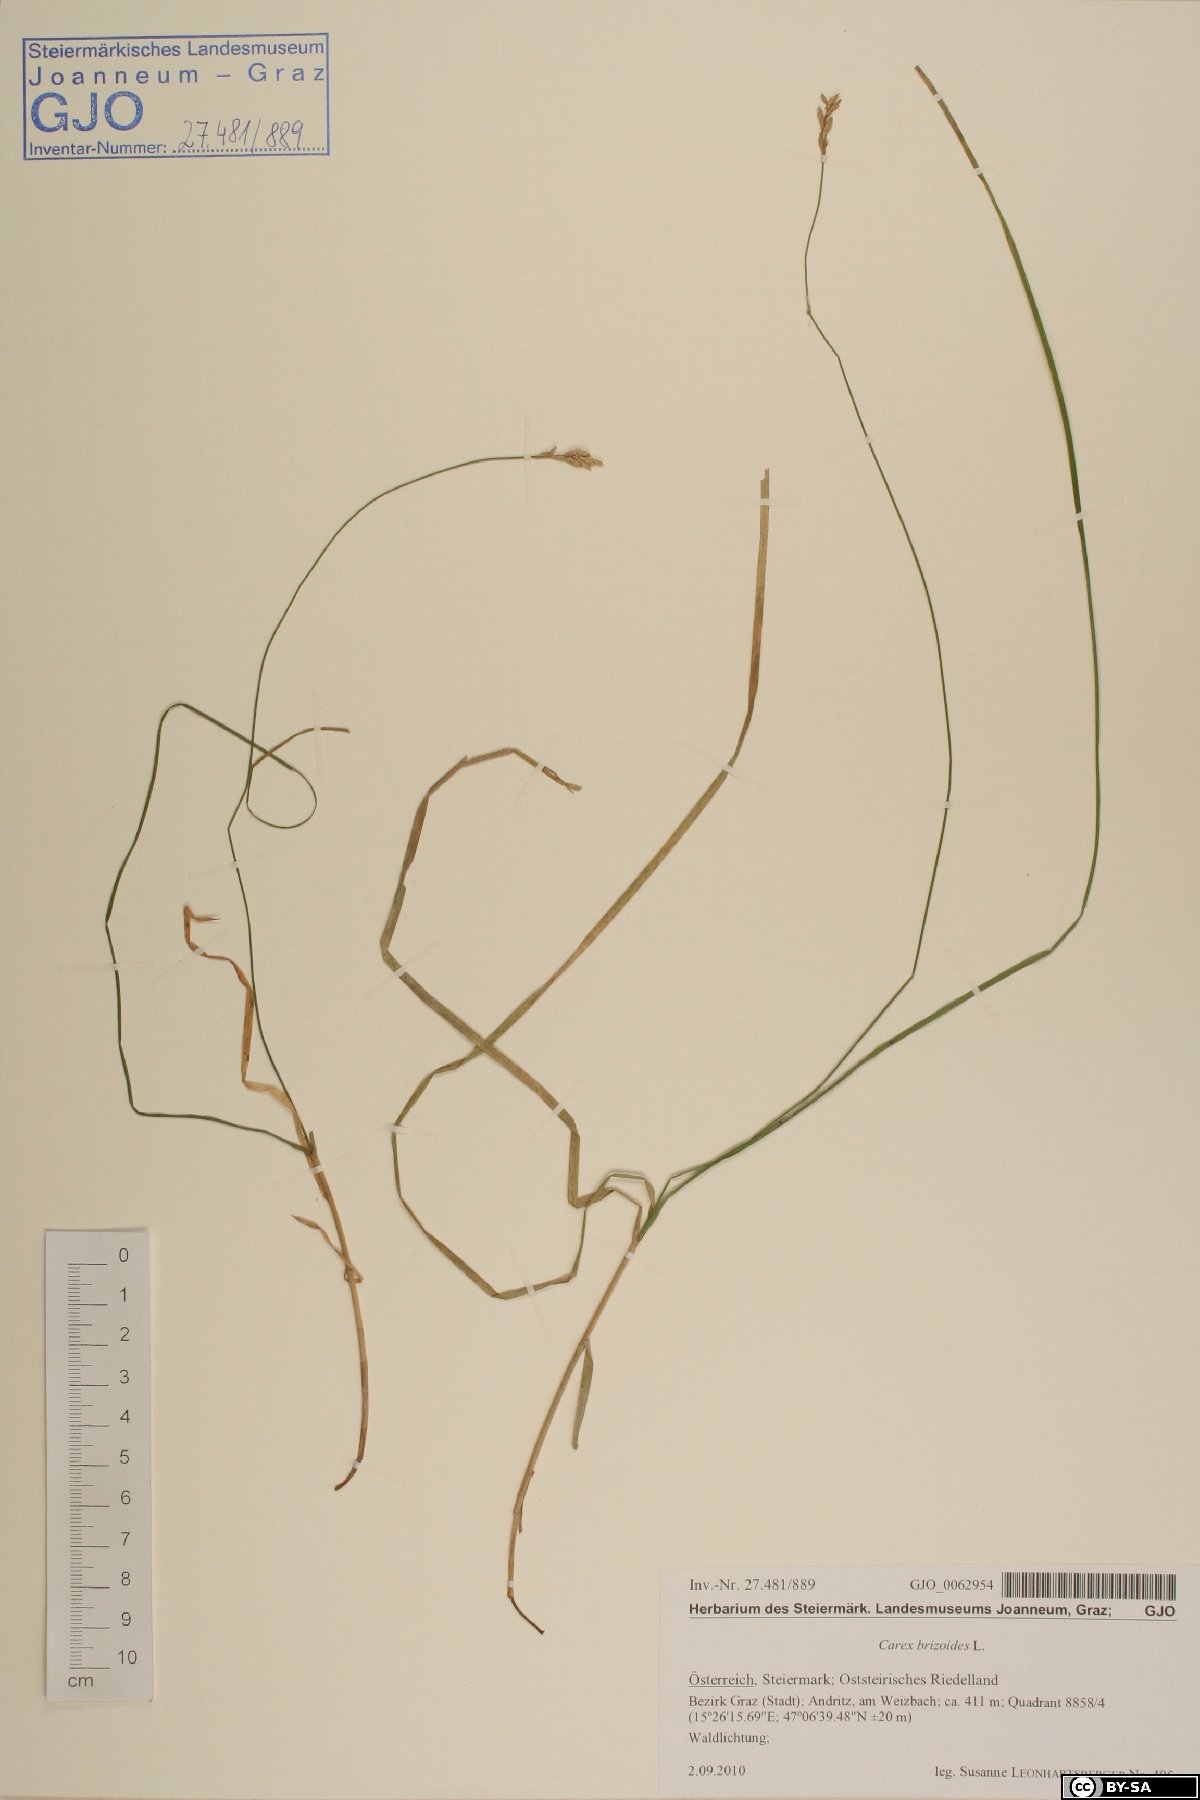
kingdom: Plantae
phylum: Tracheophyta
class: Liliopsida
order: Poales
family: Cyperaceae
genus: Carex
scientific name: Carex brizoides
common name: Quaking-grass sedge
